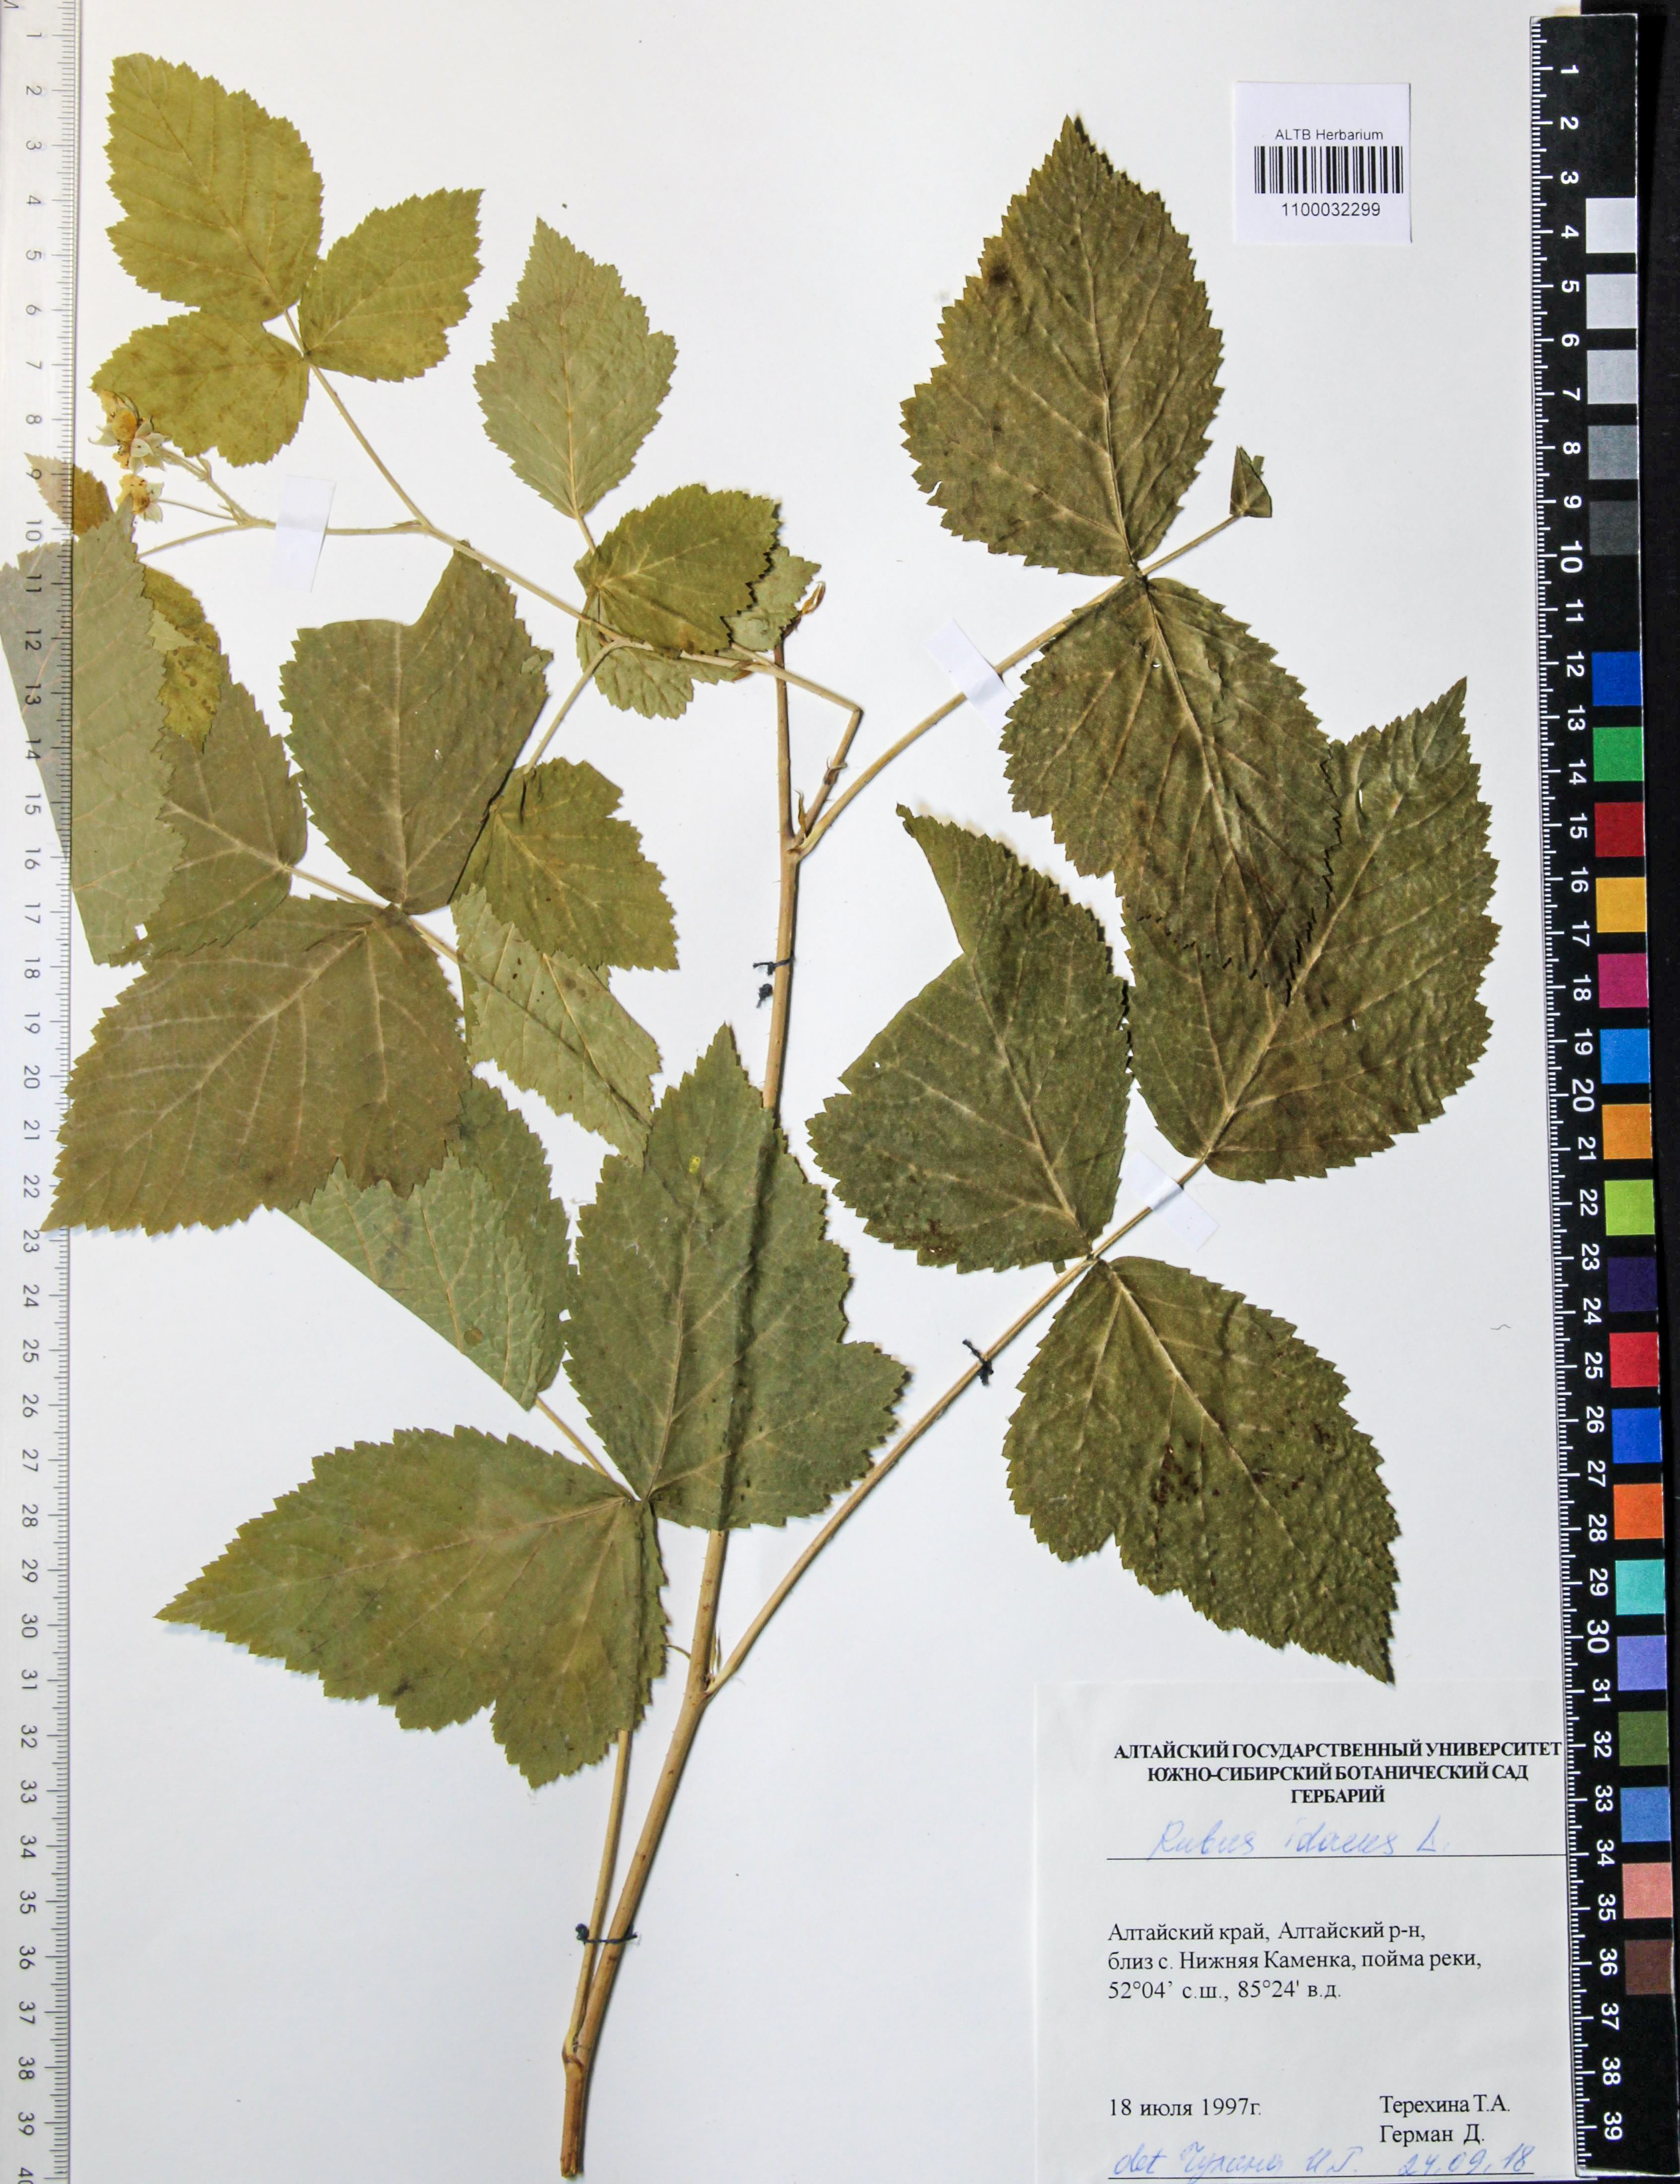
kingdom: Plantae
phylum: Tracheophyta
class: Magnoliopsida
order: Rosales
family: Rosaceae
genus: Rubus
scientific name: Rubus idaeus
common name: Raspberry
